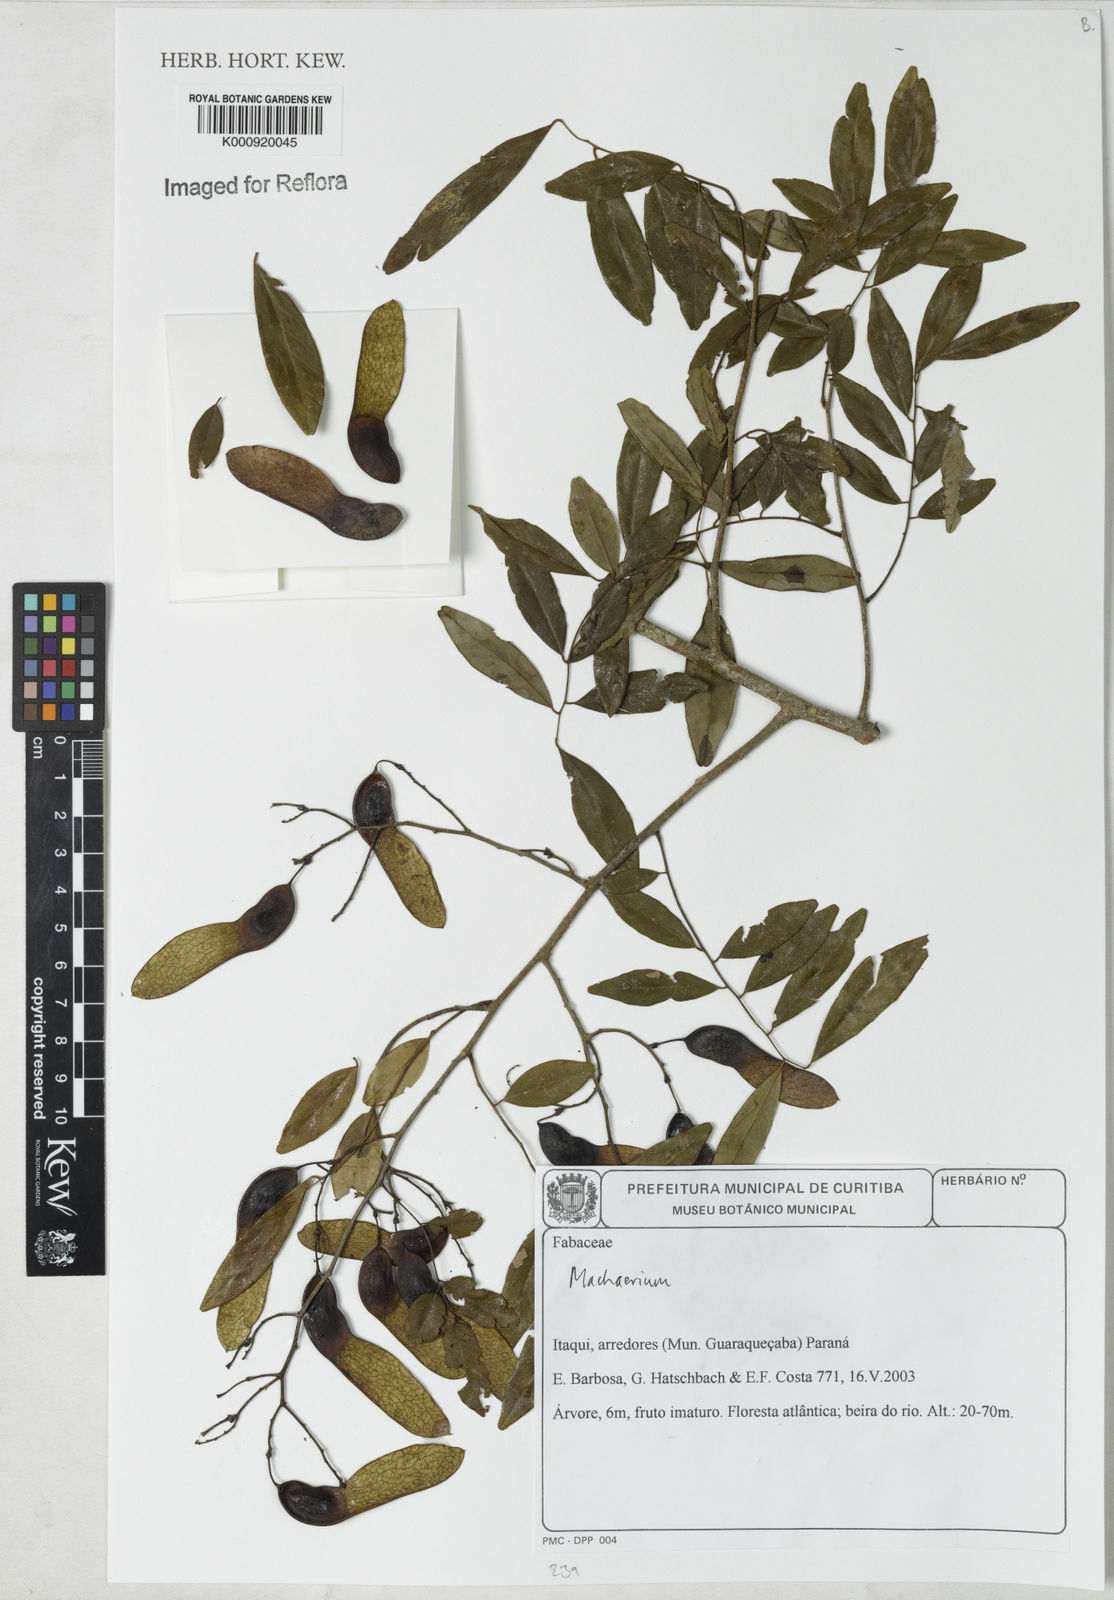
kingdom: Plantae
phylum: Tracheophyta
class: Magnoliopsida
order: Fabales
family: Fabaceae
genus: Machaerium
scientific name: Machaerium
